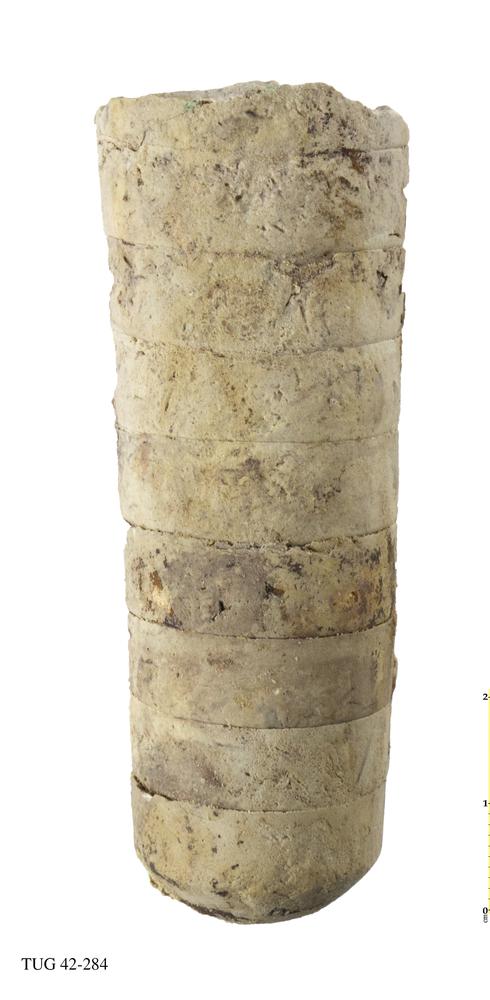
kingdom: Animalia
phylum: Mollusca
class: Cephalopoda
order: Orthocerida
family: Orthoceratidae
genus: Striatocycloceras
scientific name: Striatocycloceras Orthoceras arcuolyratum
